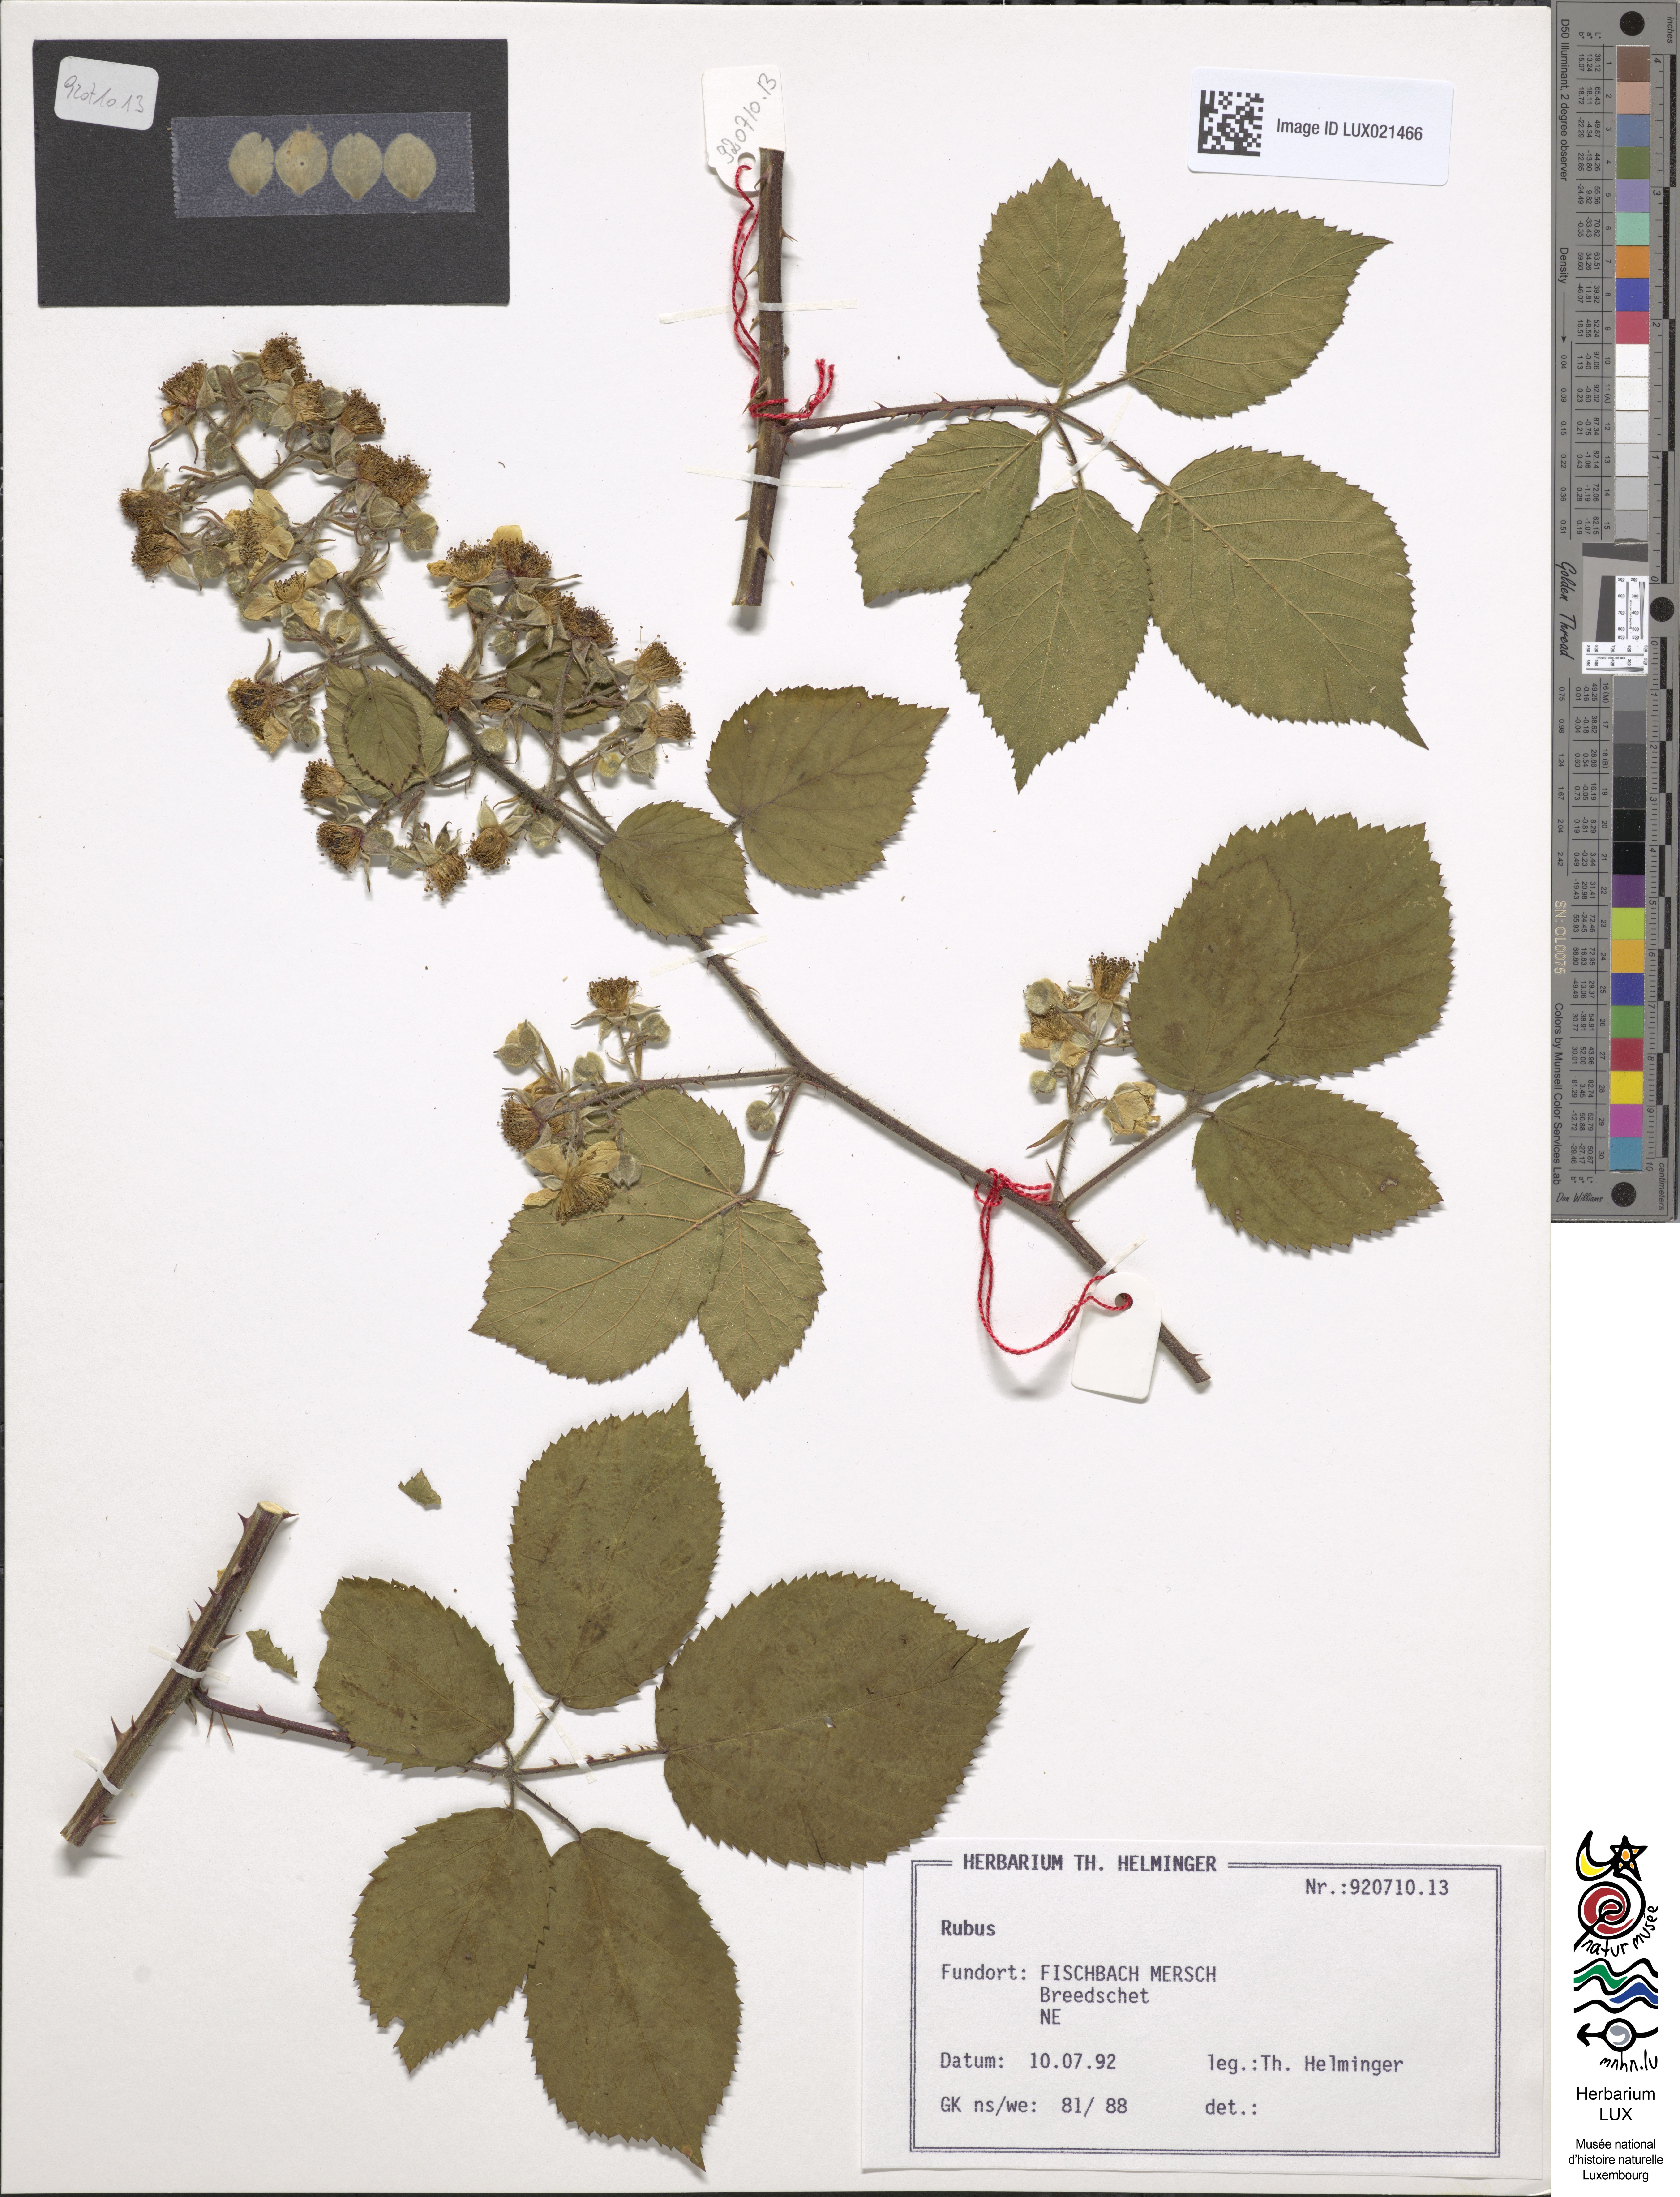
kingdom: Plantae
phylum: Tracheophyta
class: Magnoliopsida
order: Rosales
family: Rosaceae
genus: Rubus
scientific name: Rubus
